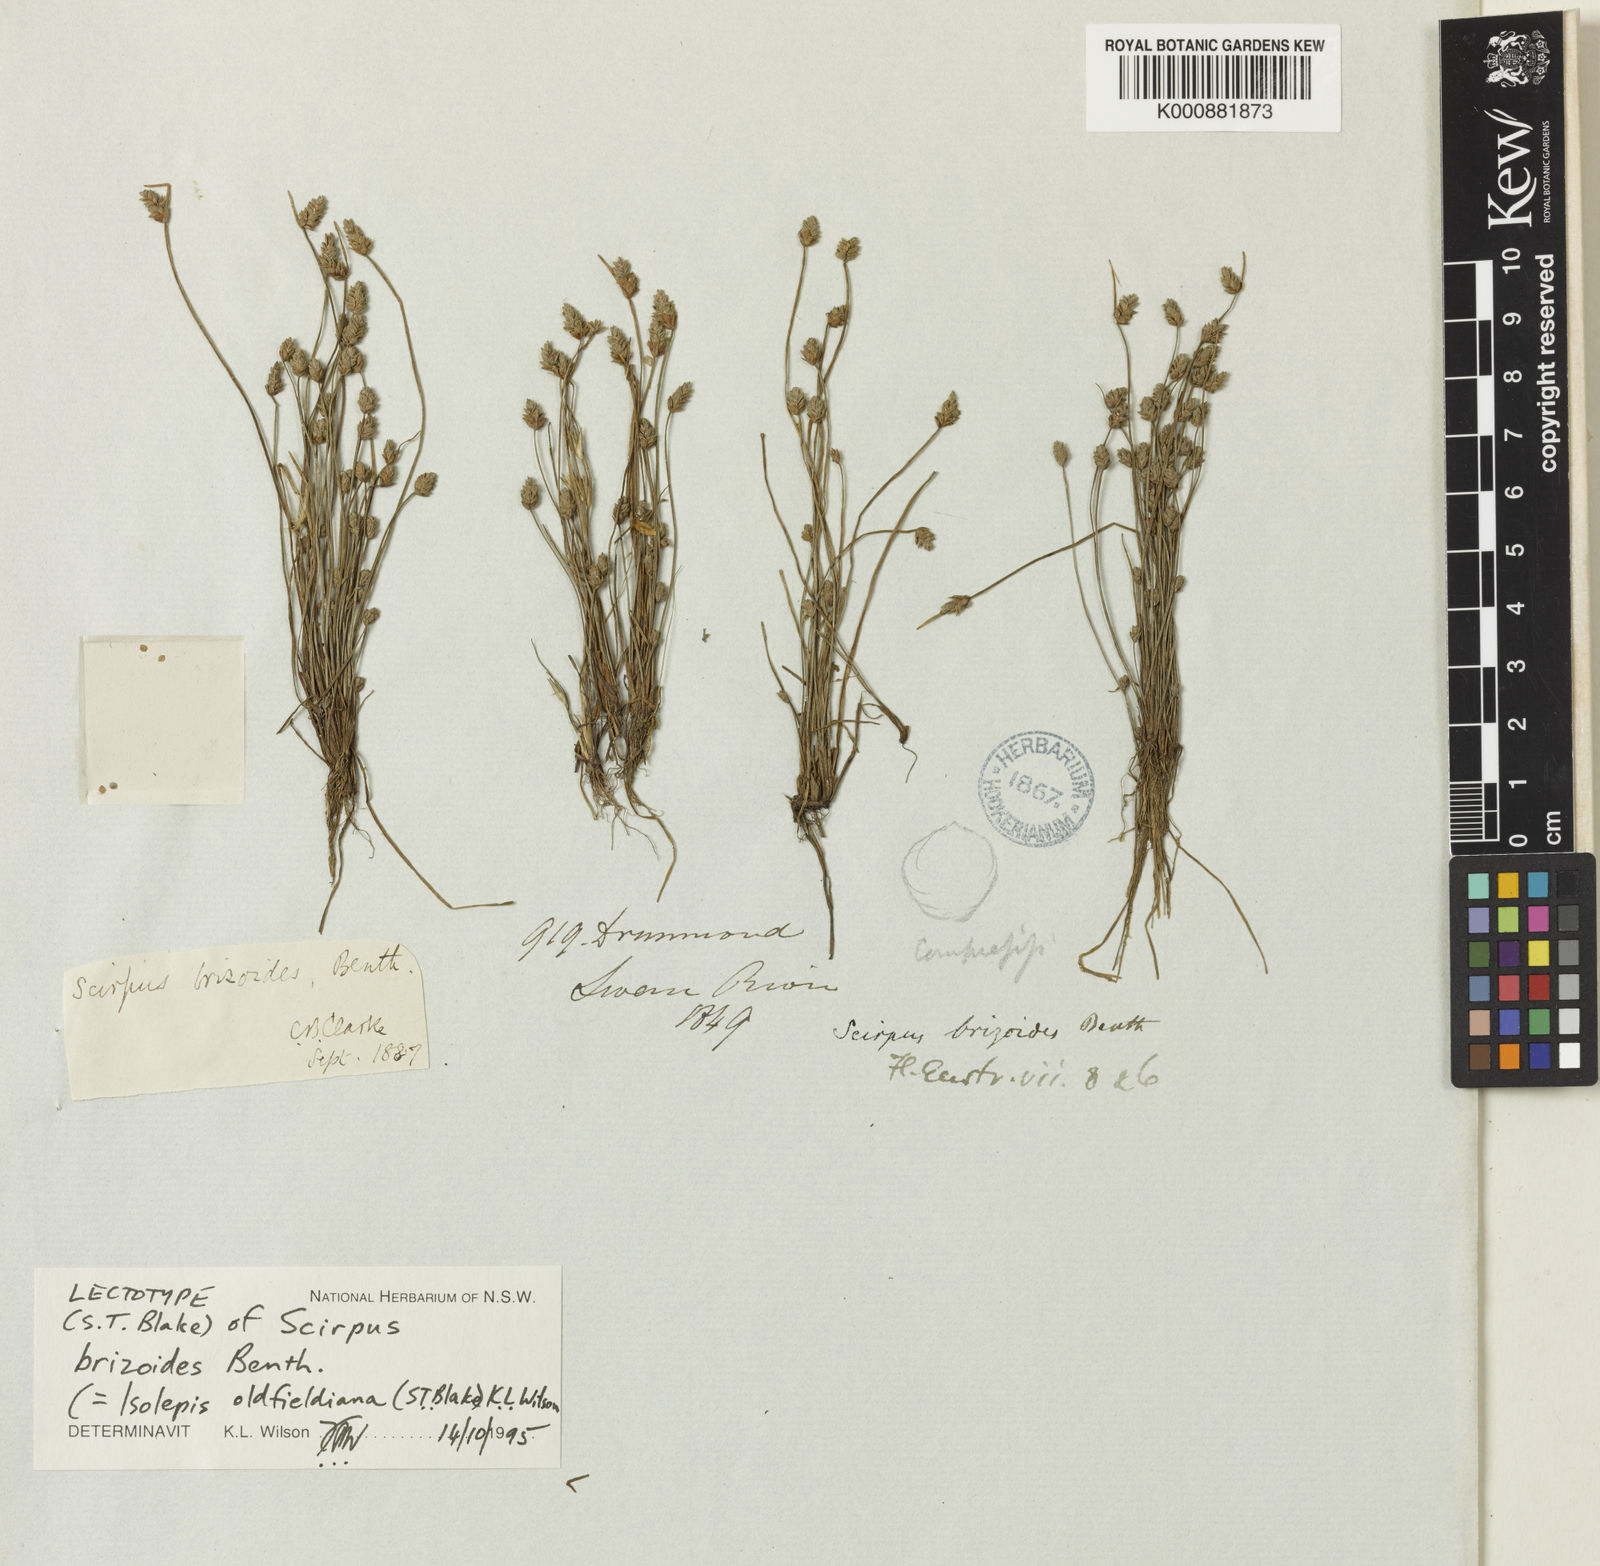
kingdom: Plantae
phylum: Tracheophyta
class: Liliopsida
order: Poales
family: Cyperaceae
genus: Isolepis
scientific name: Isolepis oldfieldiana
